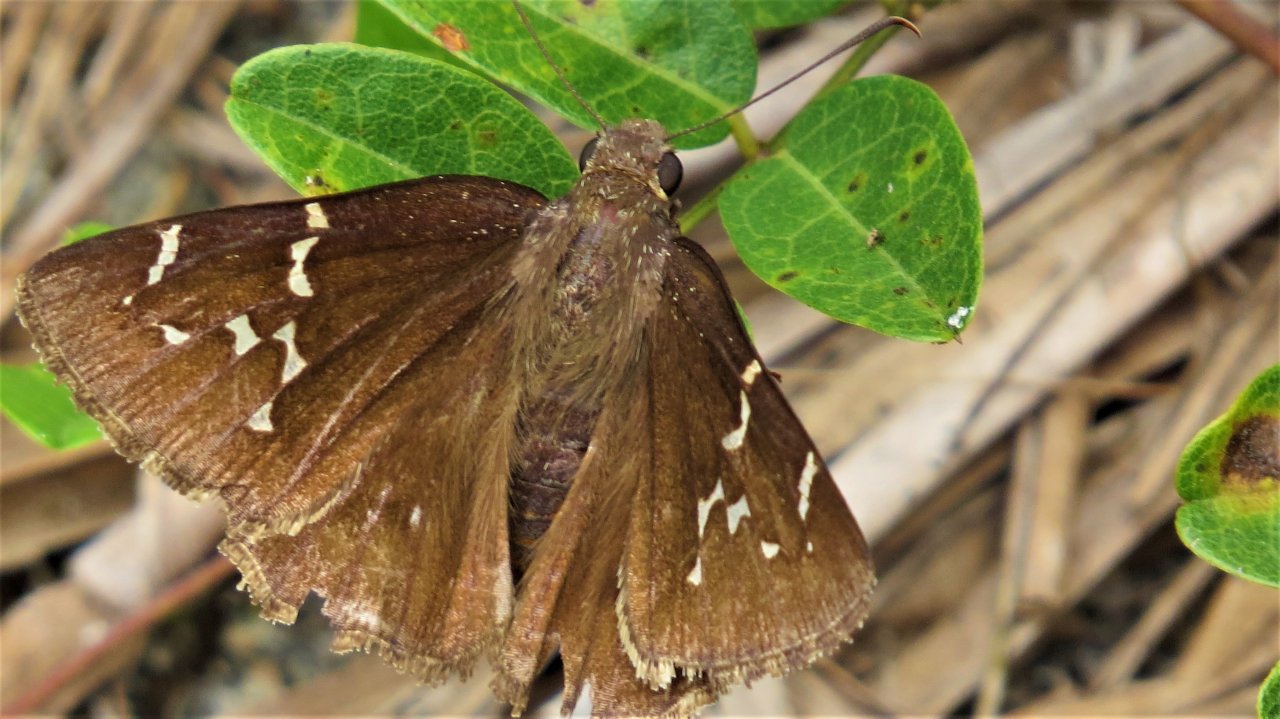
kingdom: Animalia
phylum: Arthropoda
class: Insecta
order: Lepidoptera
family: Hesperiidae
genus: Autochton
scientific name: Autochton
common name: Southern Cloudywing
